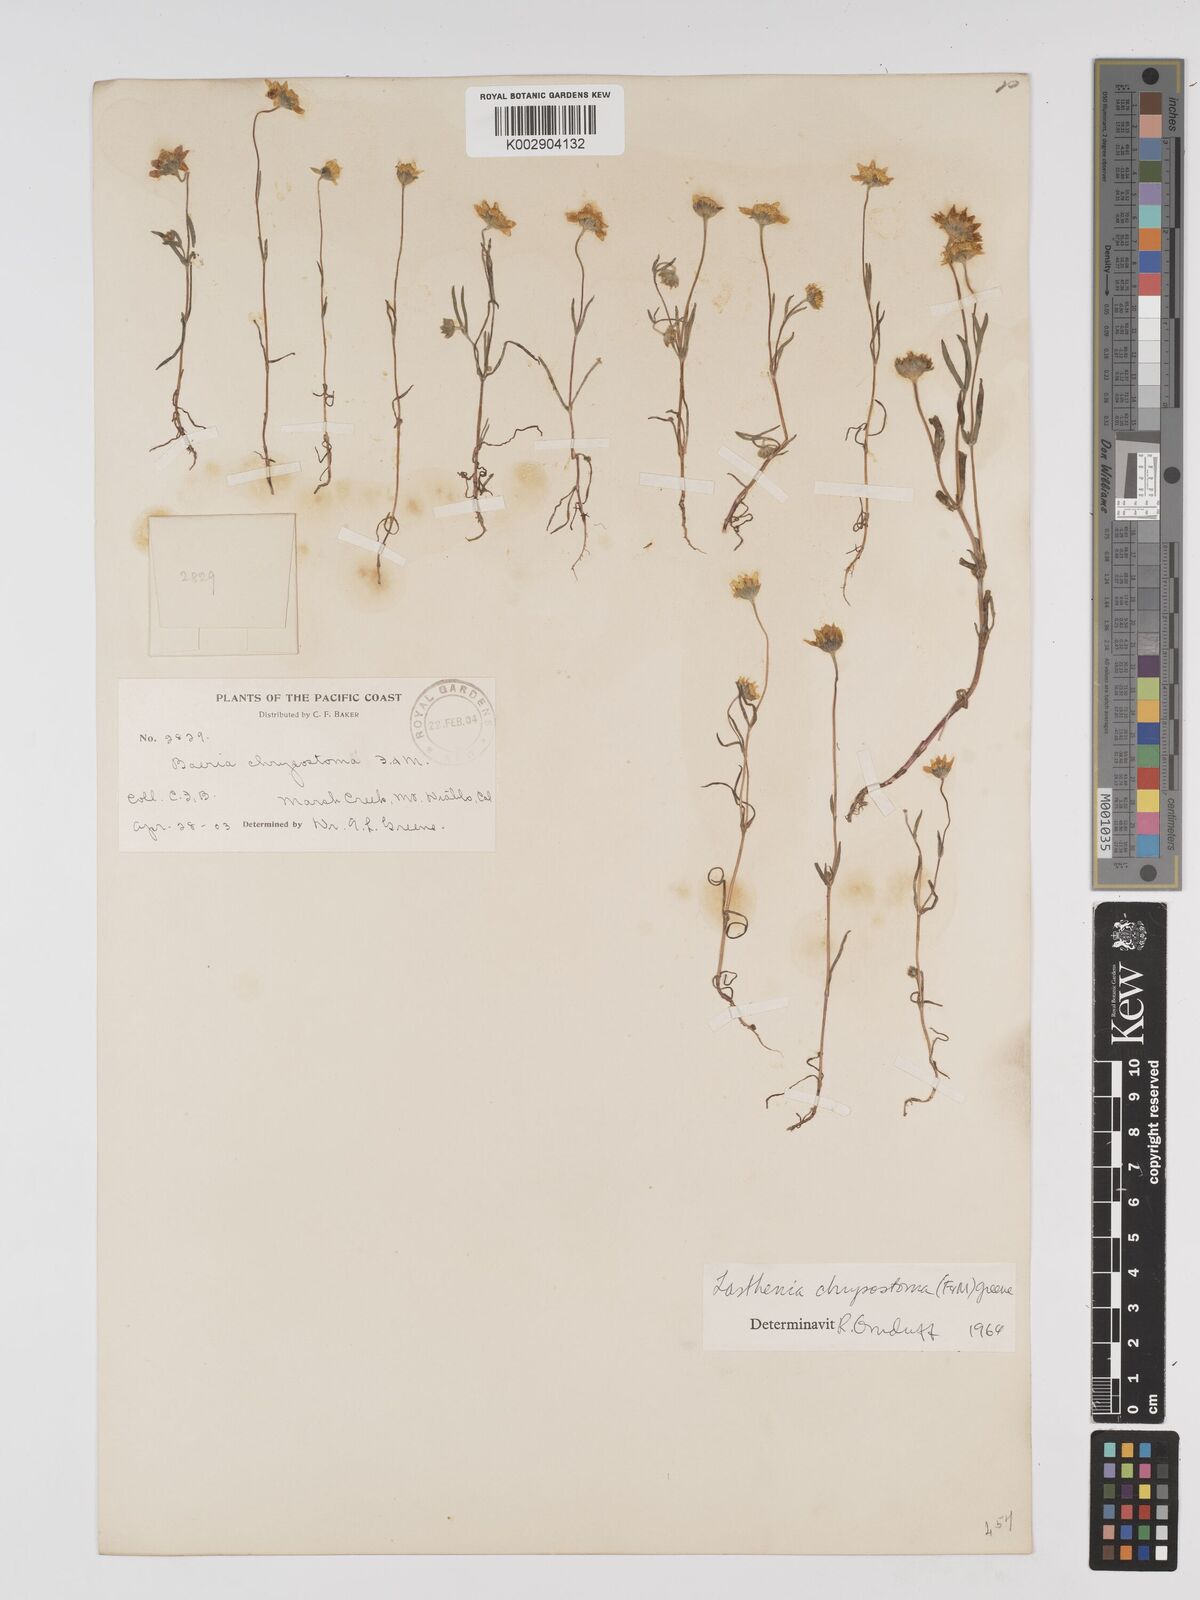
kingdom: Plantae
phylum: Tracheophyta
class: Magnoliopsida
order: Asterales
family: Asteraceae
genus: Lasthenia
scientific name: Lasthenia californica
